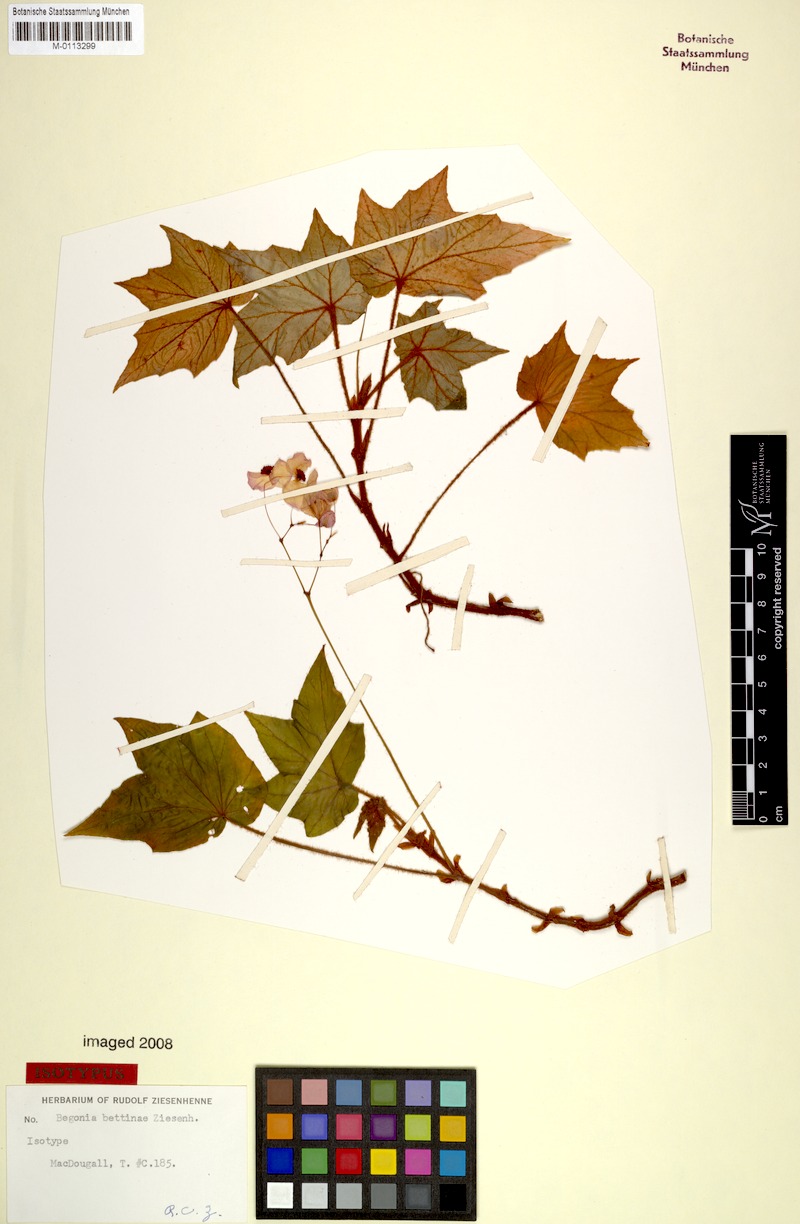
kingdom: Plantae
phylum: Tracheophyta
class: Magnoliopsida
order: Cucurbitales
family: Begoniaceae
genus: Begonia
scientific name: Begonia bettinae
